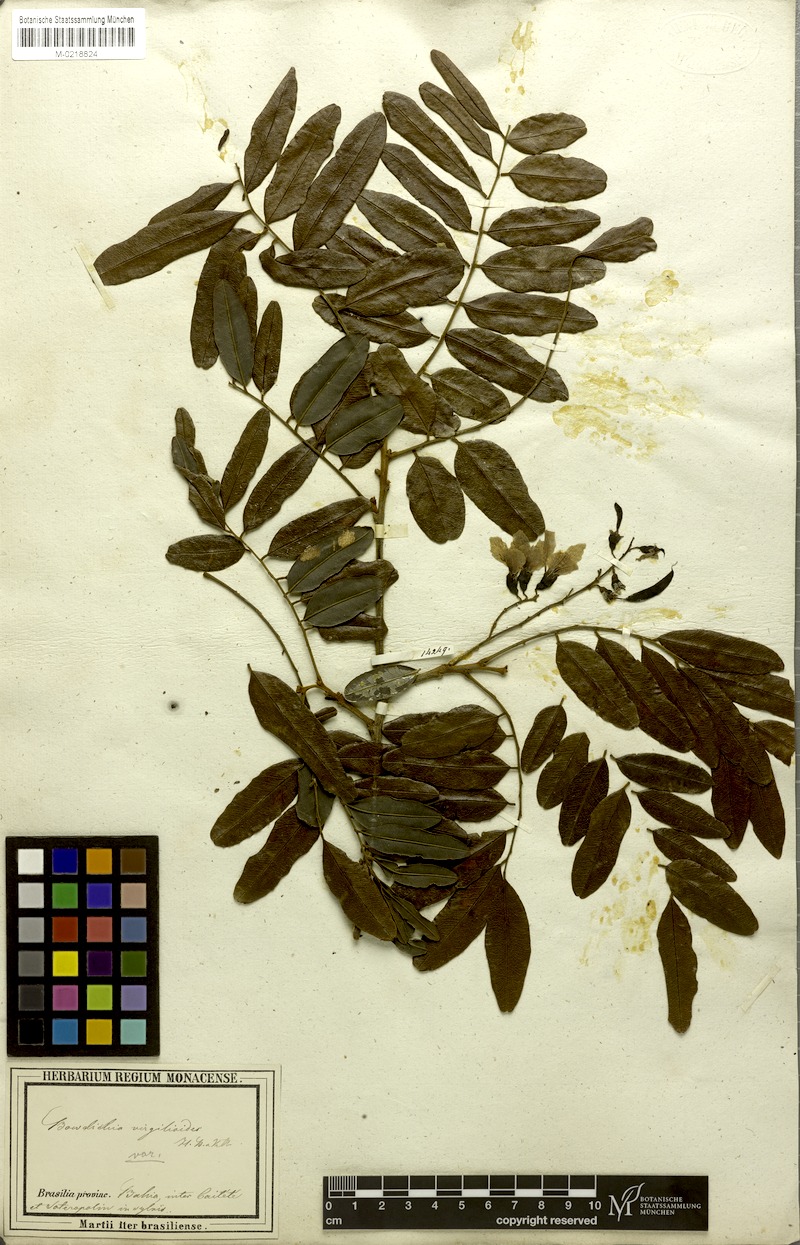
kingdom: Plantae
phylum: Tracheophyta
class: Magnoliopsida
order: Fabales
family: Fabaceae
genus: Bowdichia
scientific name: Bowdichia virgilioides
